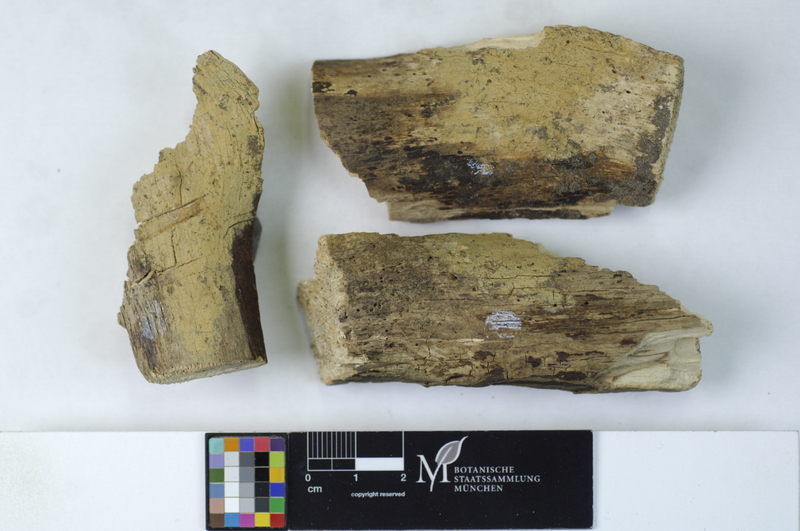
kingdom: Fungi
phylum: Basidiomycota
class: Agaricomycetes
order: Trechisporales
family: Hydnodontaceae
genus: Brevicellicium
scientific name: Brevicellicium olivascens
